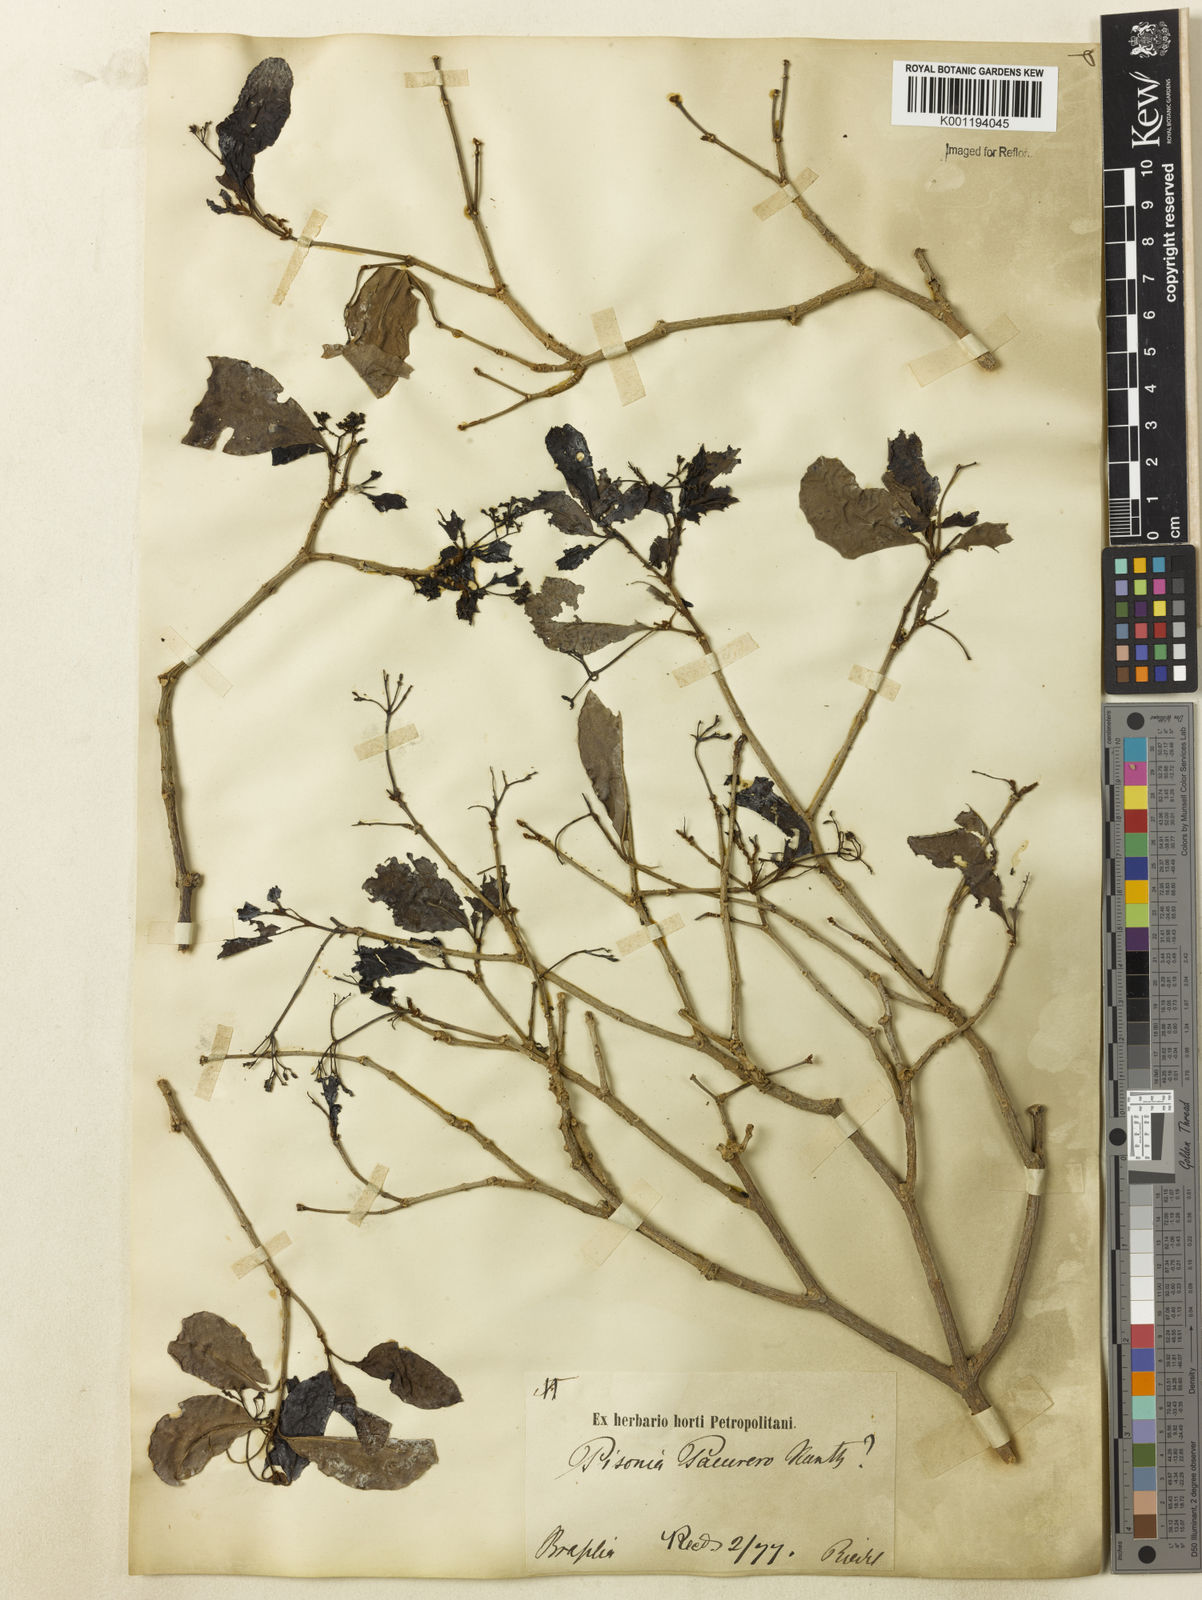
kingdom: Plantae
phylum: Tracheophyta
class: Magnoliopsida
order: Caryophyllales
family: Nyctaginaceae
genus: Guapira
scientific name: Guapira
